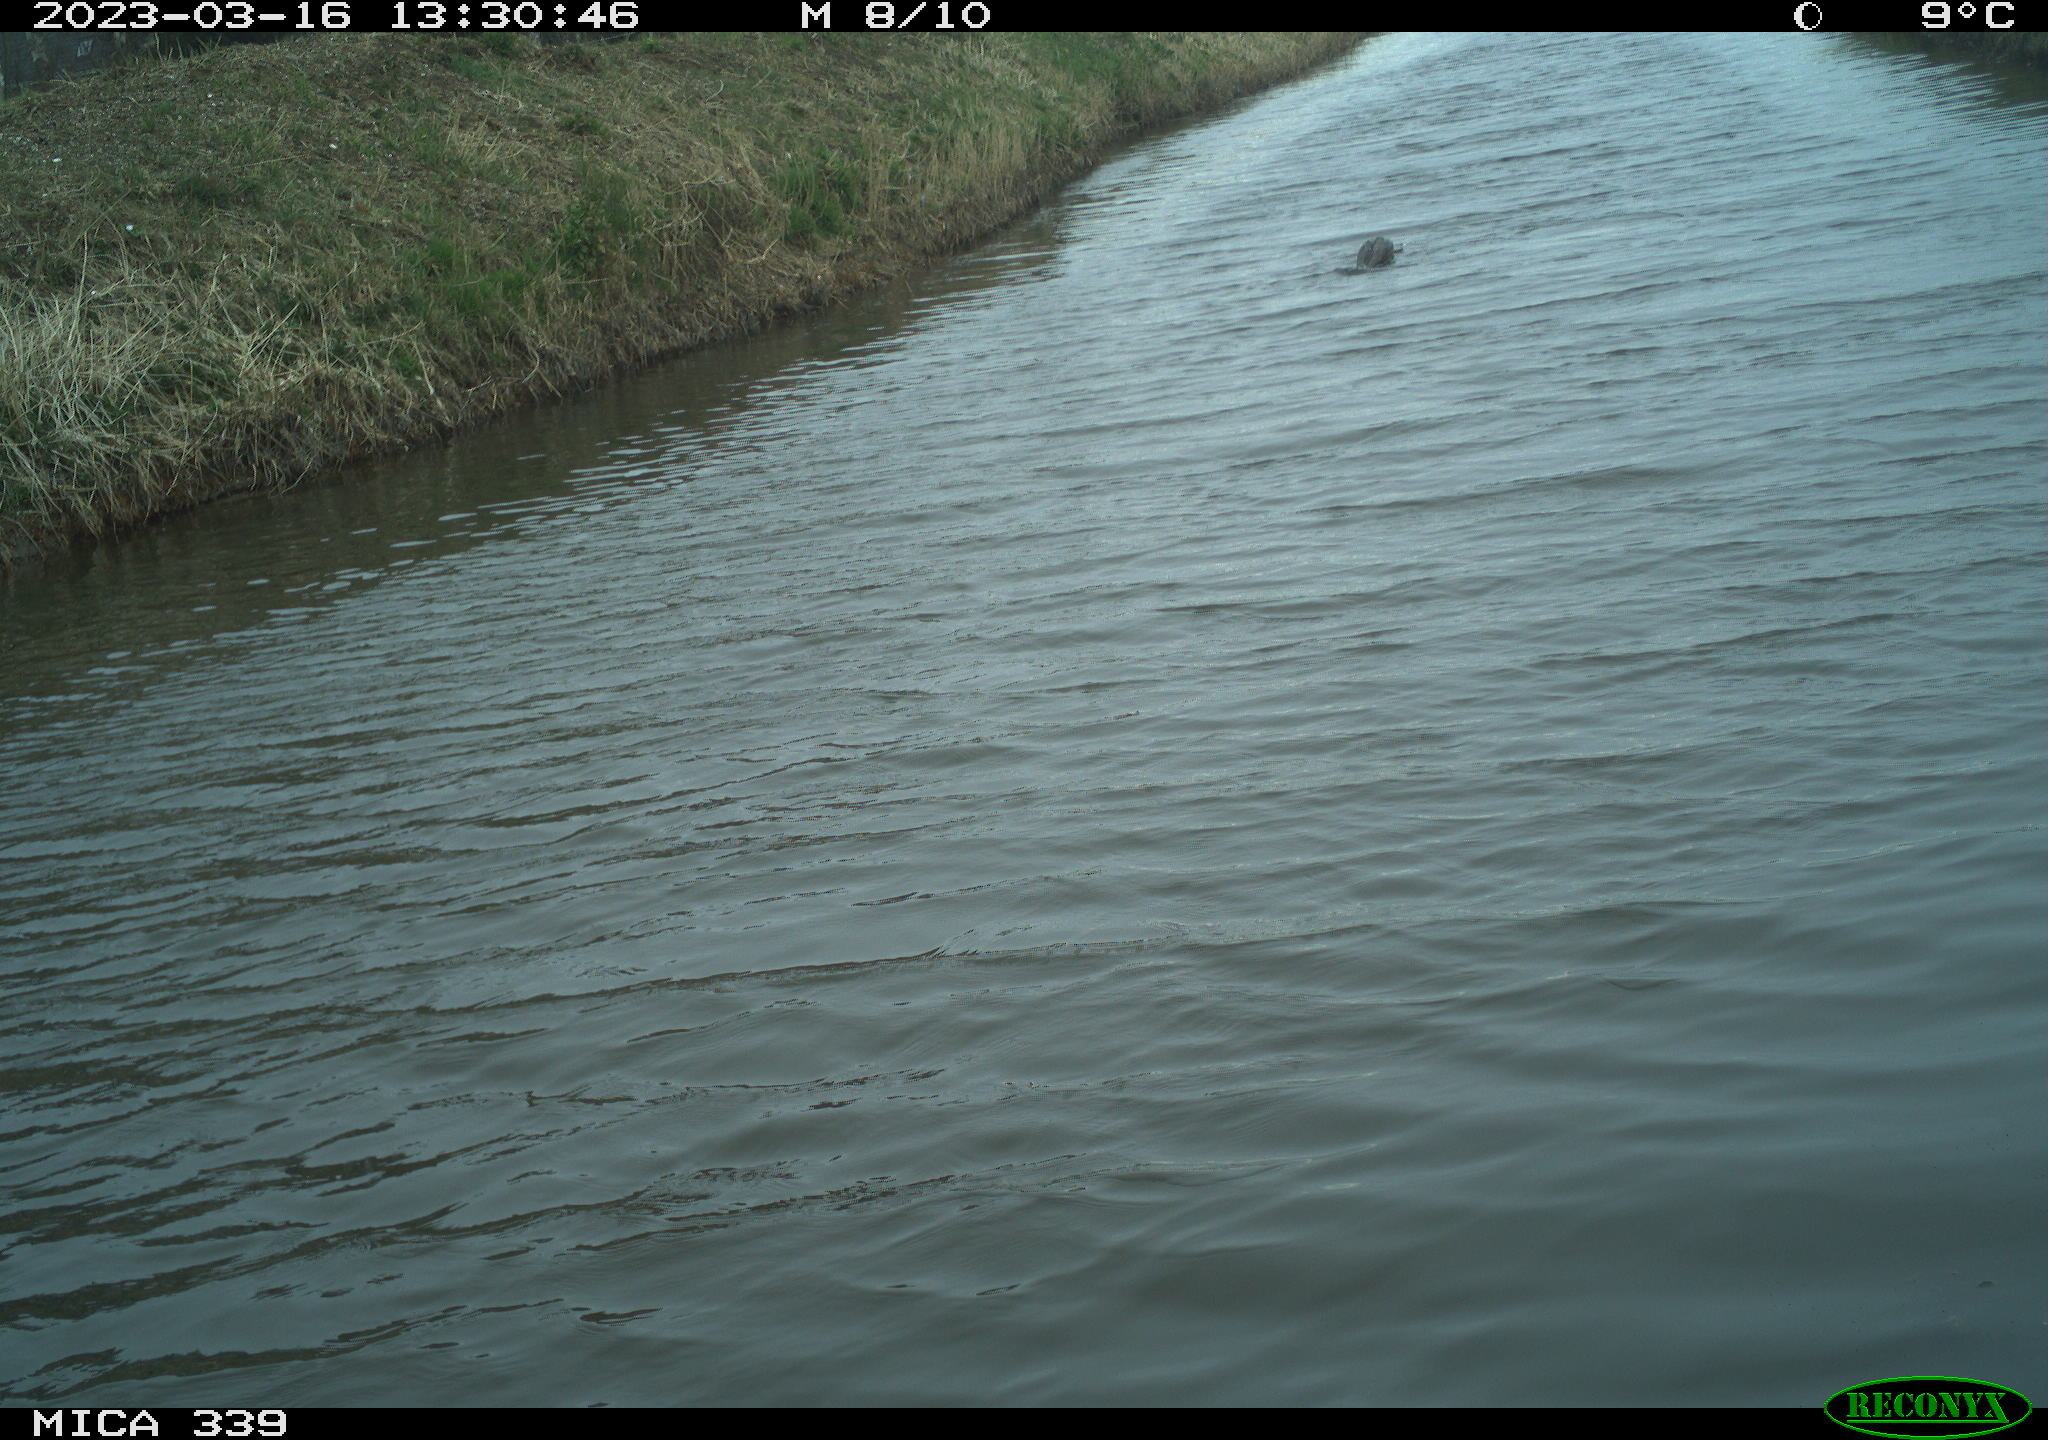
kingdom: Animalia
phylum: Chordata
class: Aves
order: Suliformes
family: Phalacrocoracidae
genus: Phalacrocorax
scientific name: Phalacrocorax carbo
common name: Great cormorant
